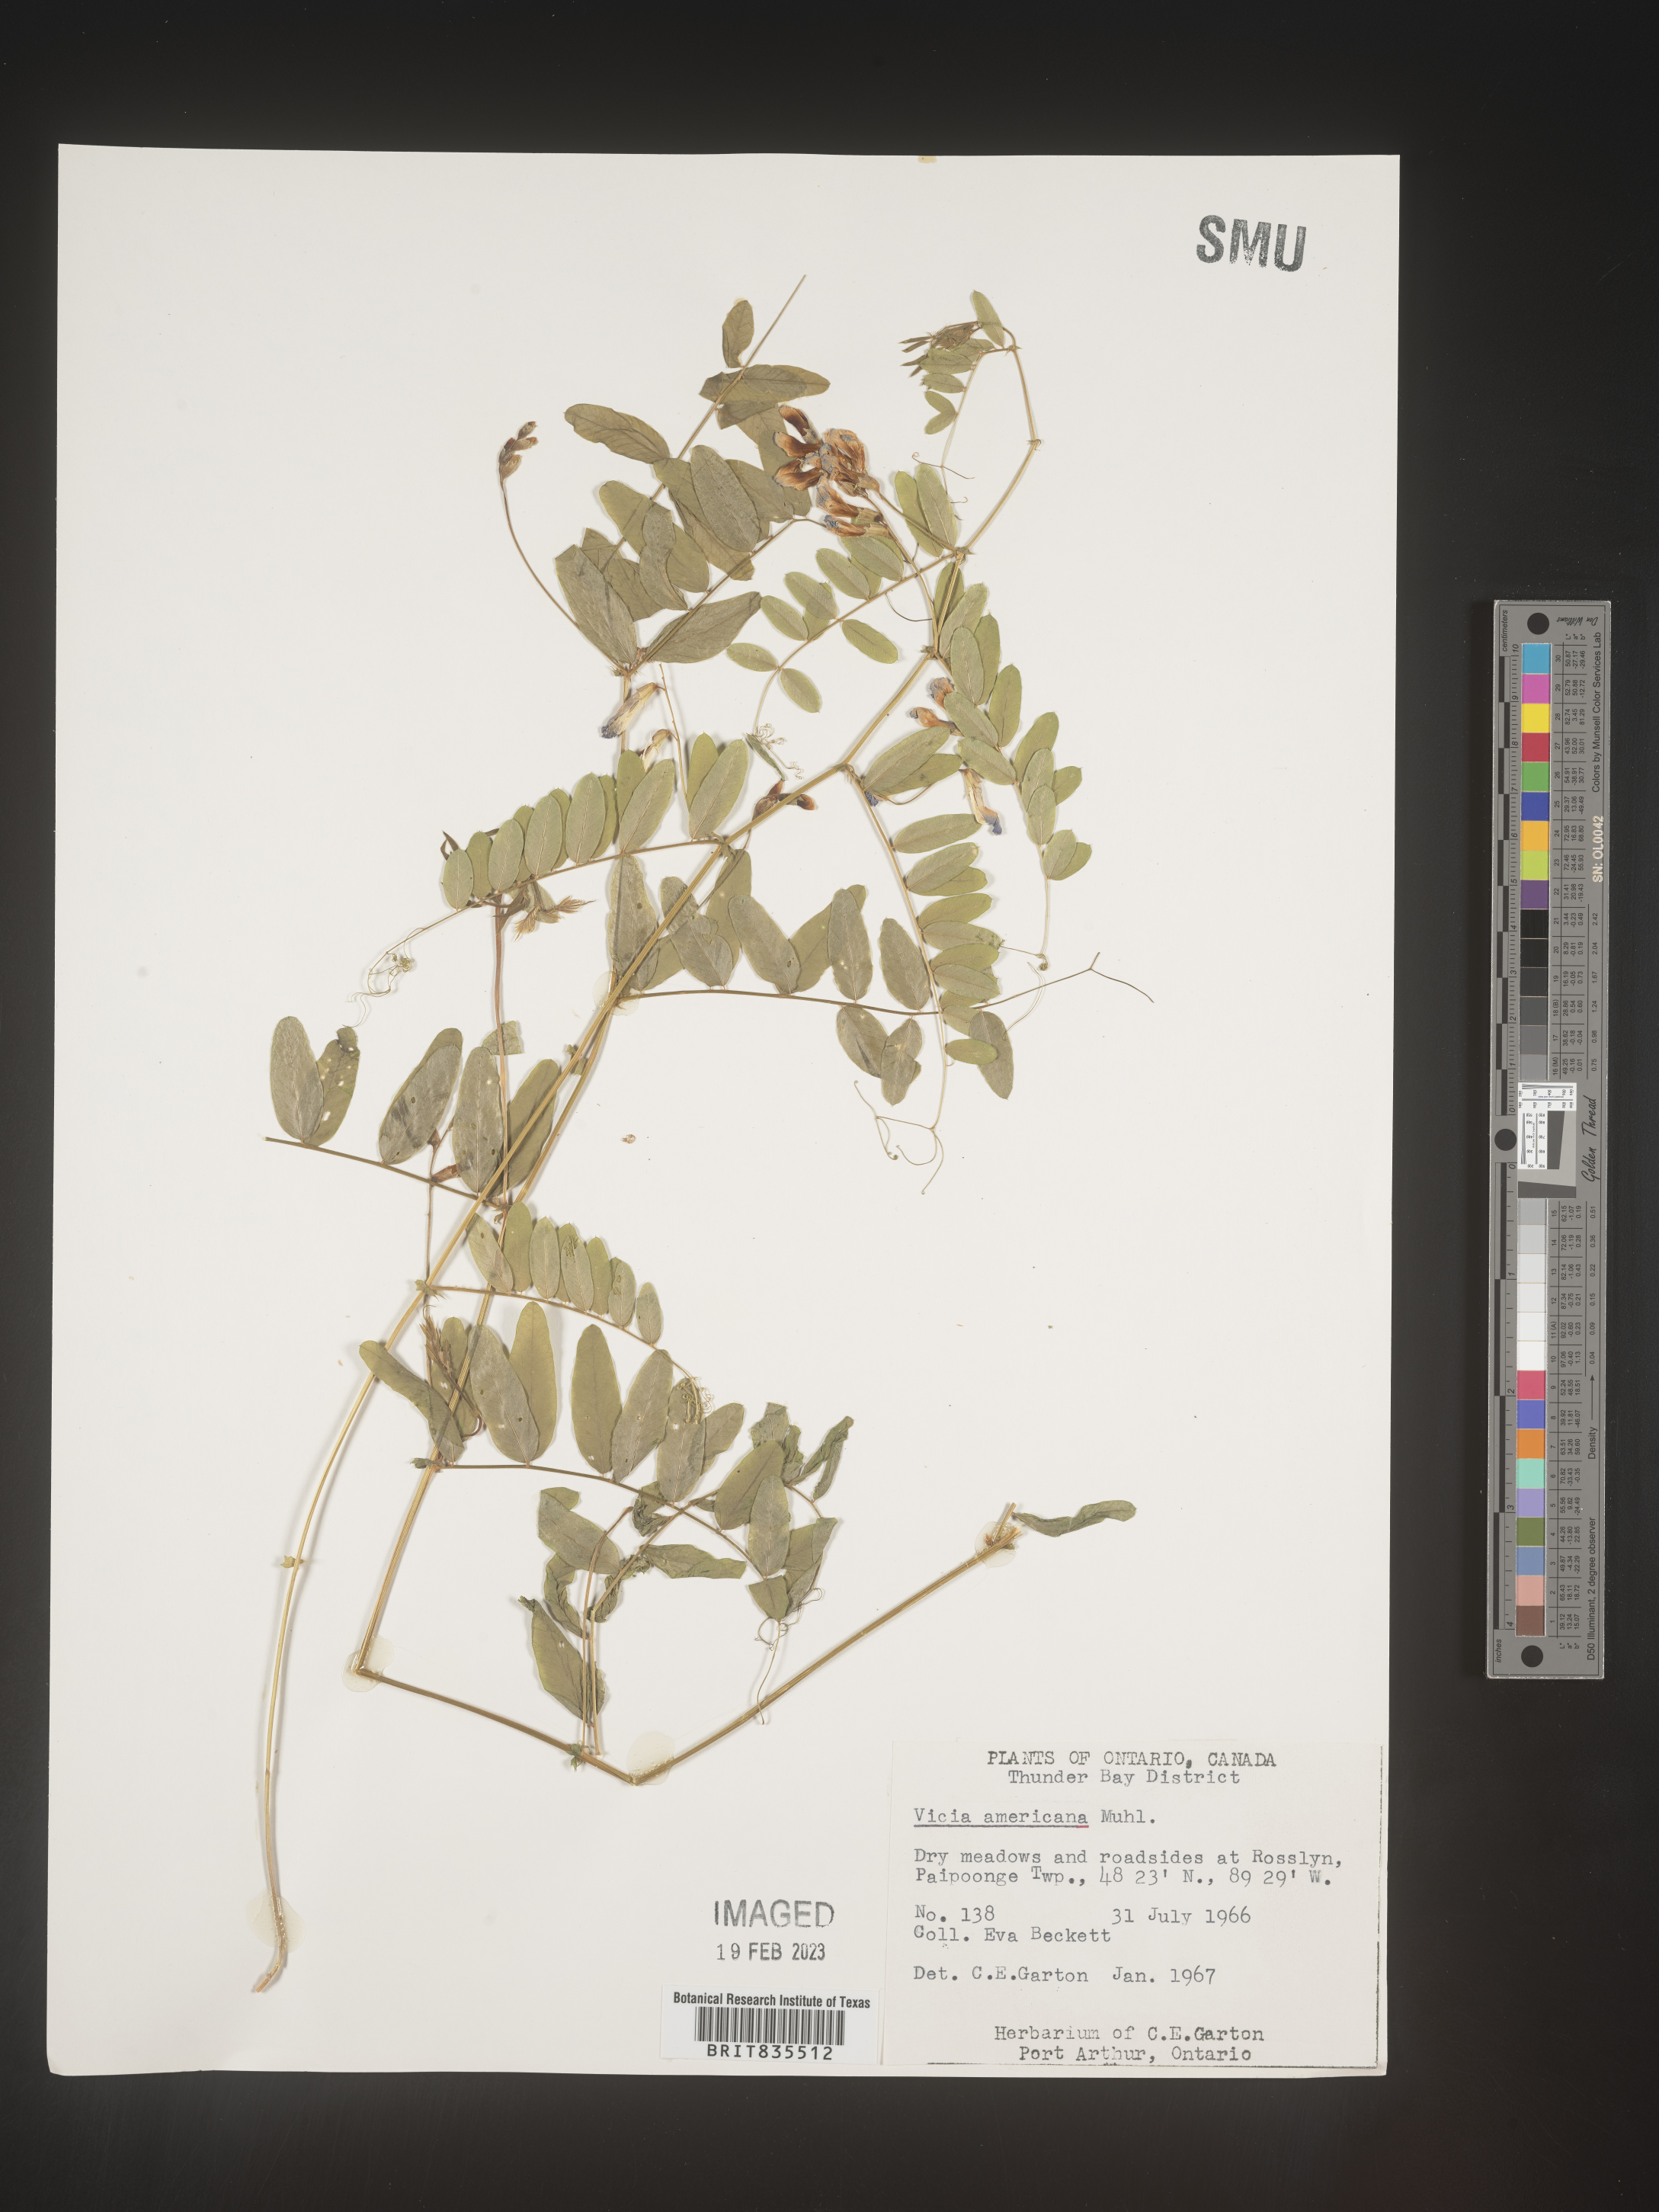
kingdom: Plantae
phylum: Tracheophyta
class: Magnoliopsida
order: Fabales
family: Fabaceae
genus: Vicia
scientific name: Vicia americana
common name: American vetch
